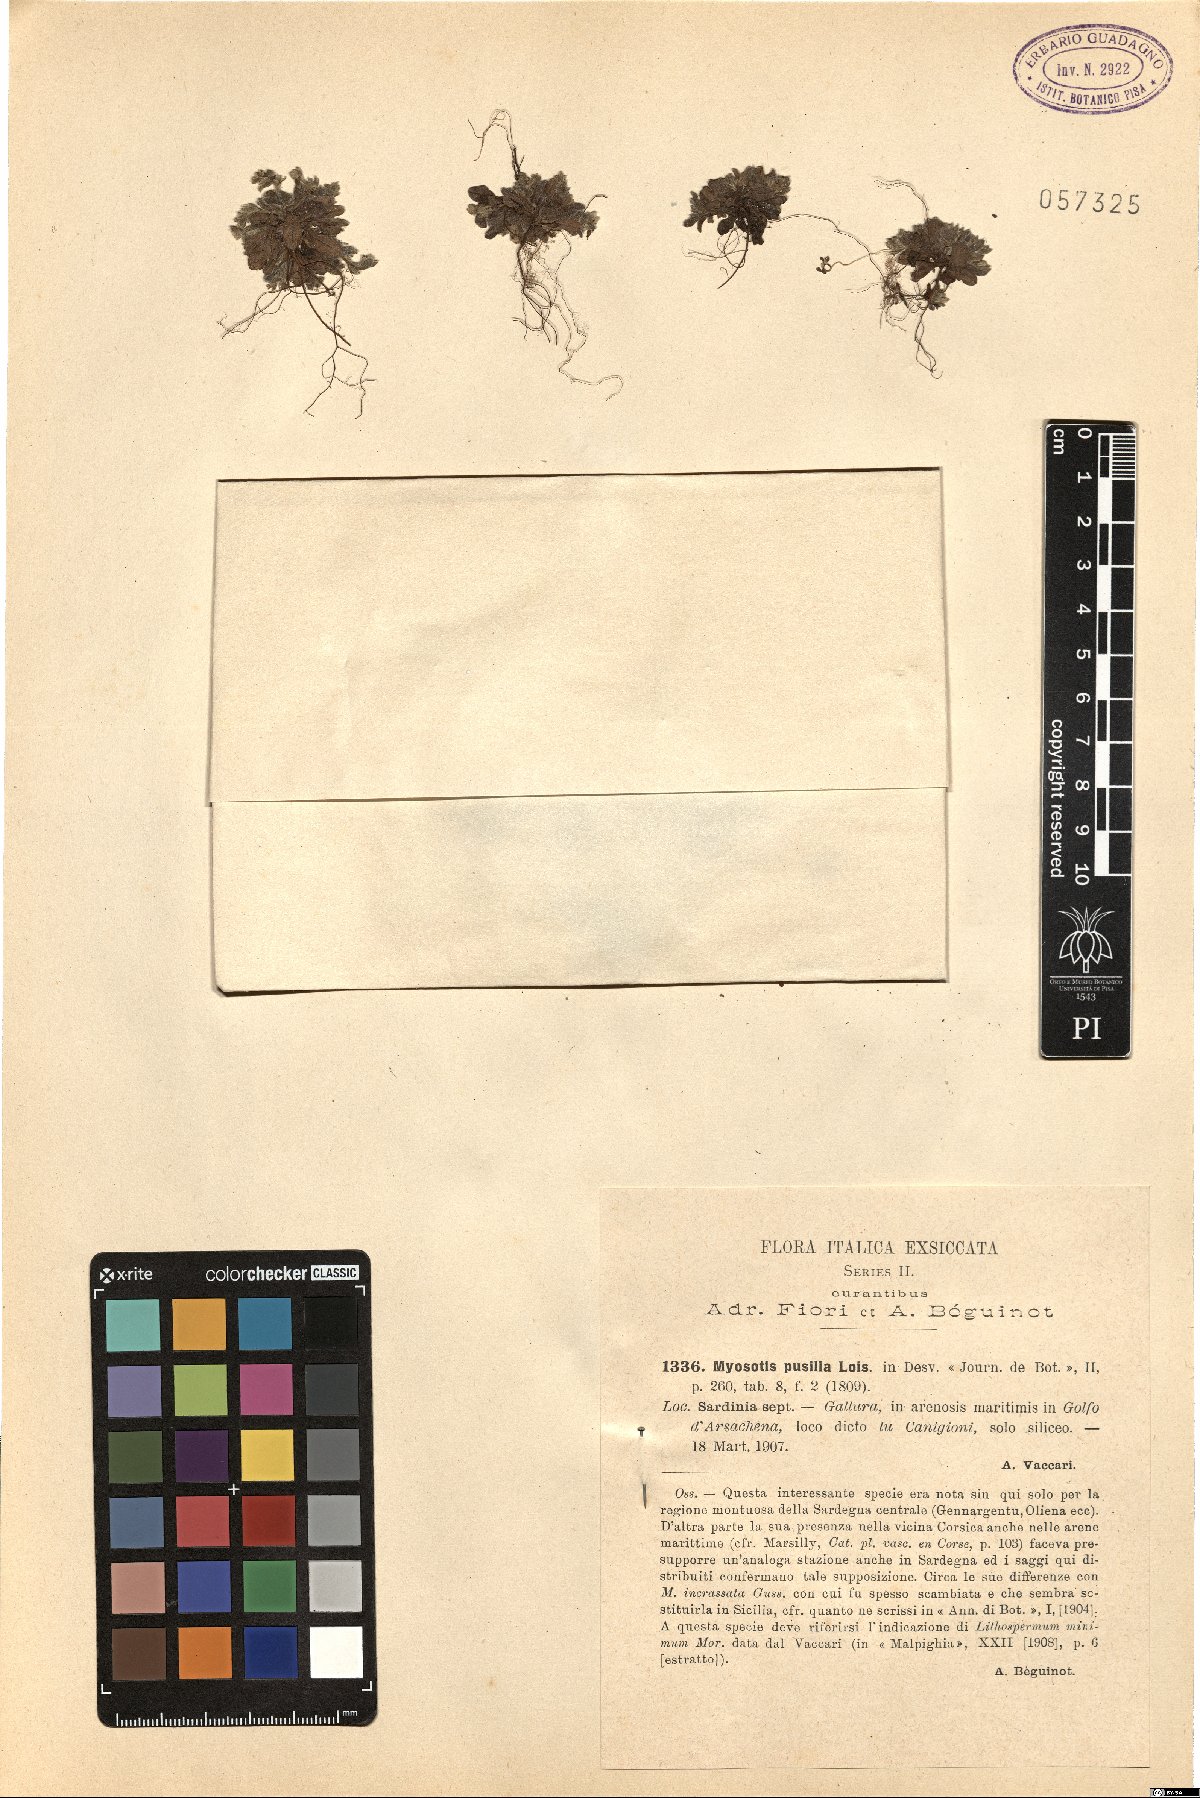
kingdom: Plantae
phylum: Tracheophyta
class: Magnoliopsida
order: Boraginales
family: Boraginaceae
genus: Myosotis
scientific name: Myosotis pusilla
